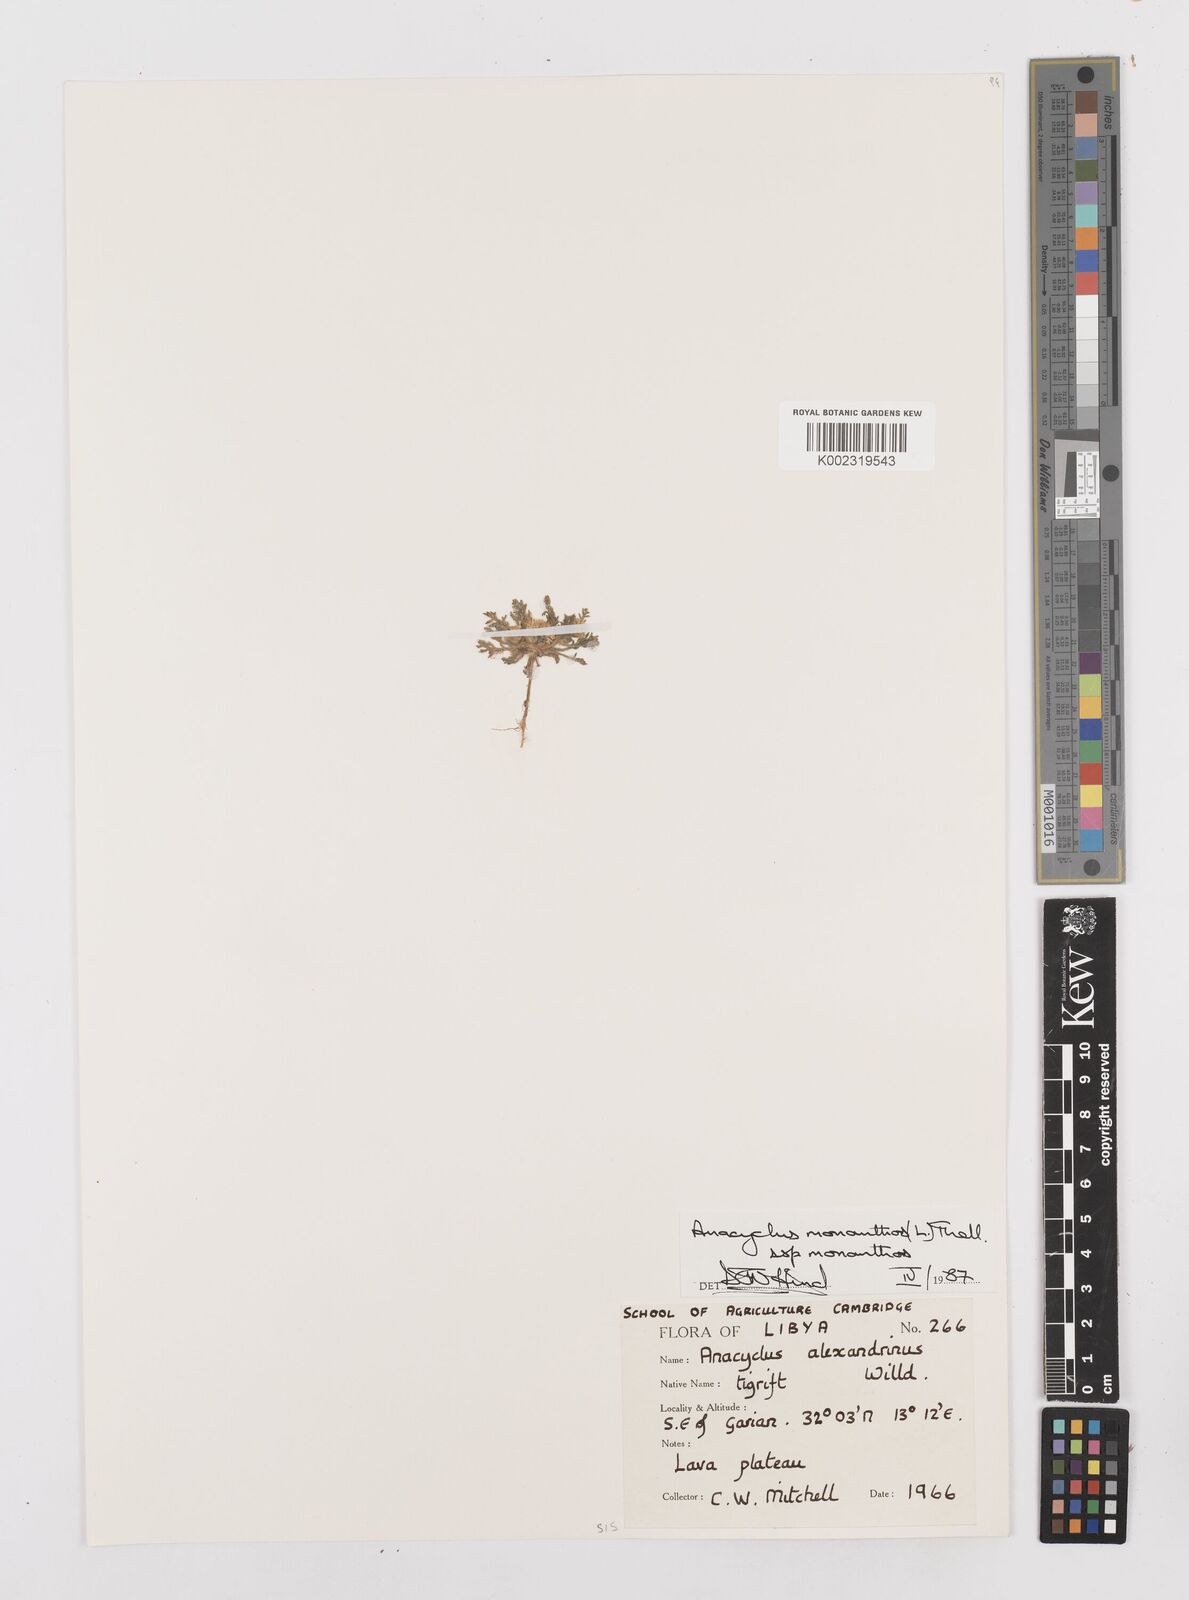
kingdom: Plantae
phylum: Tracheophyta
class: Magnoliopsida
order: Asterales
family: Asteraceae
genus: Anacyclus
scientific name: Anacyclus monanthos
